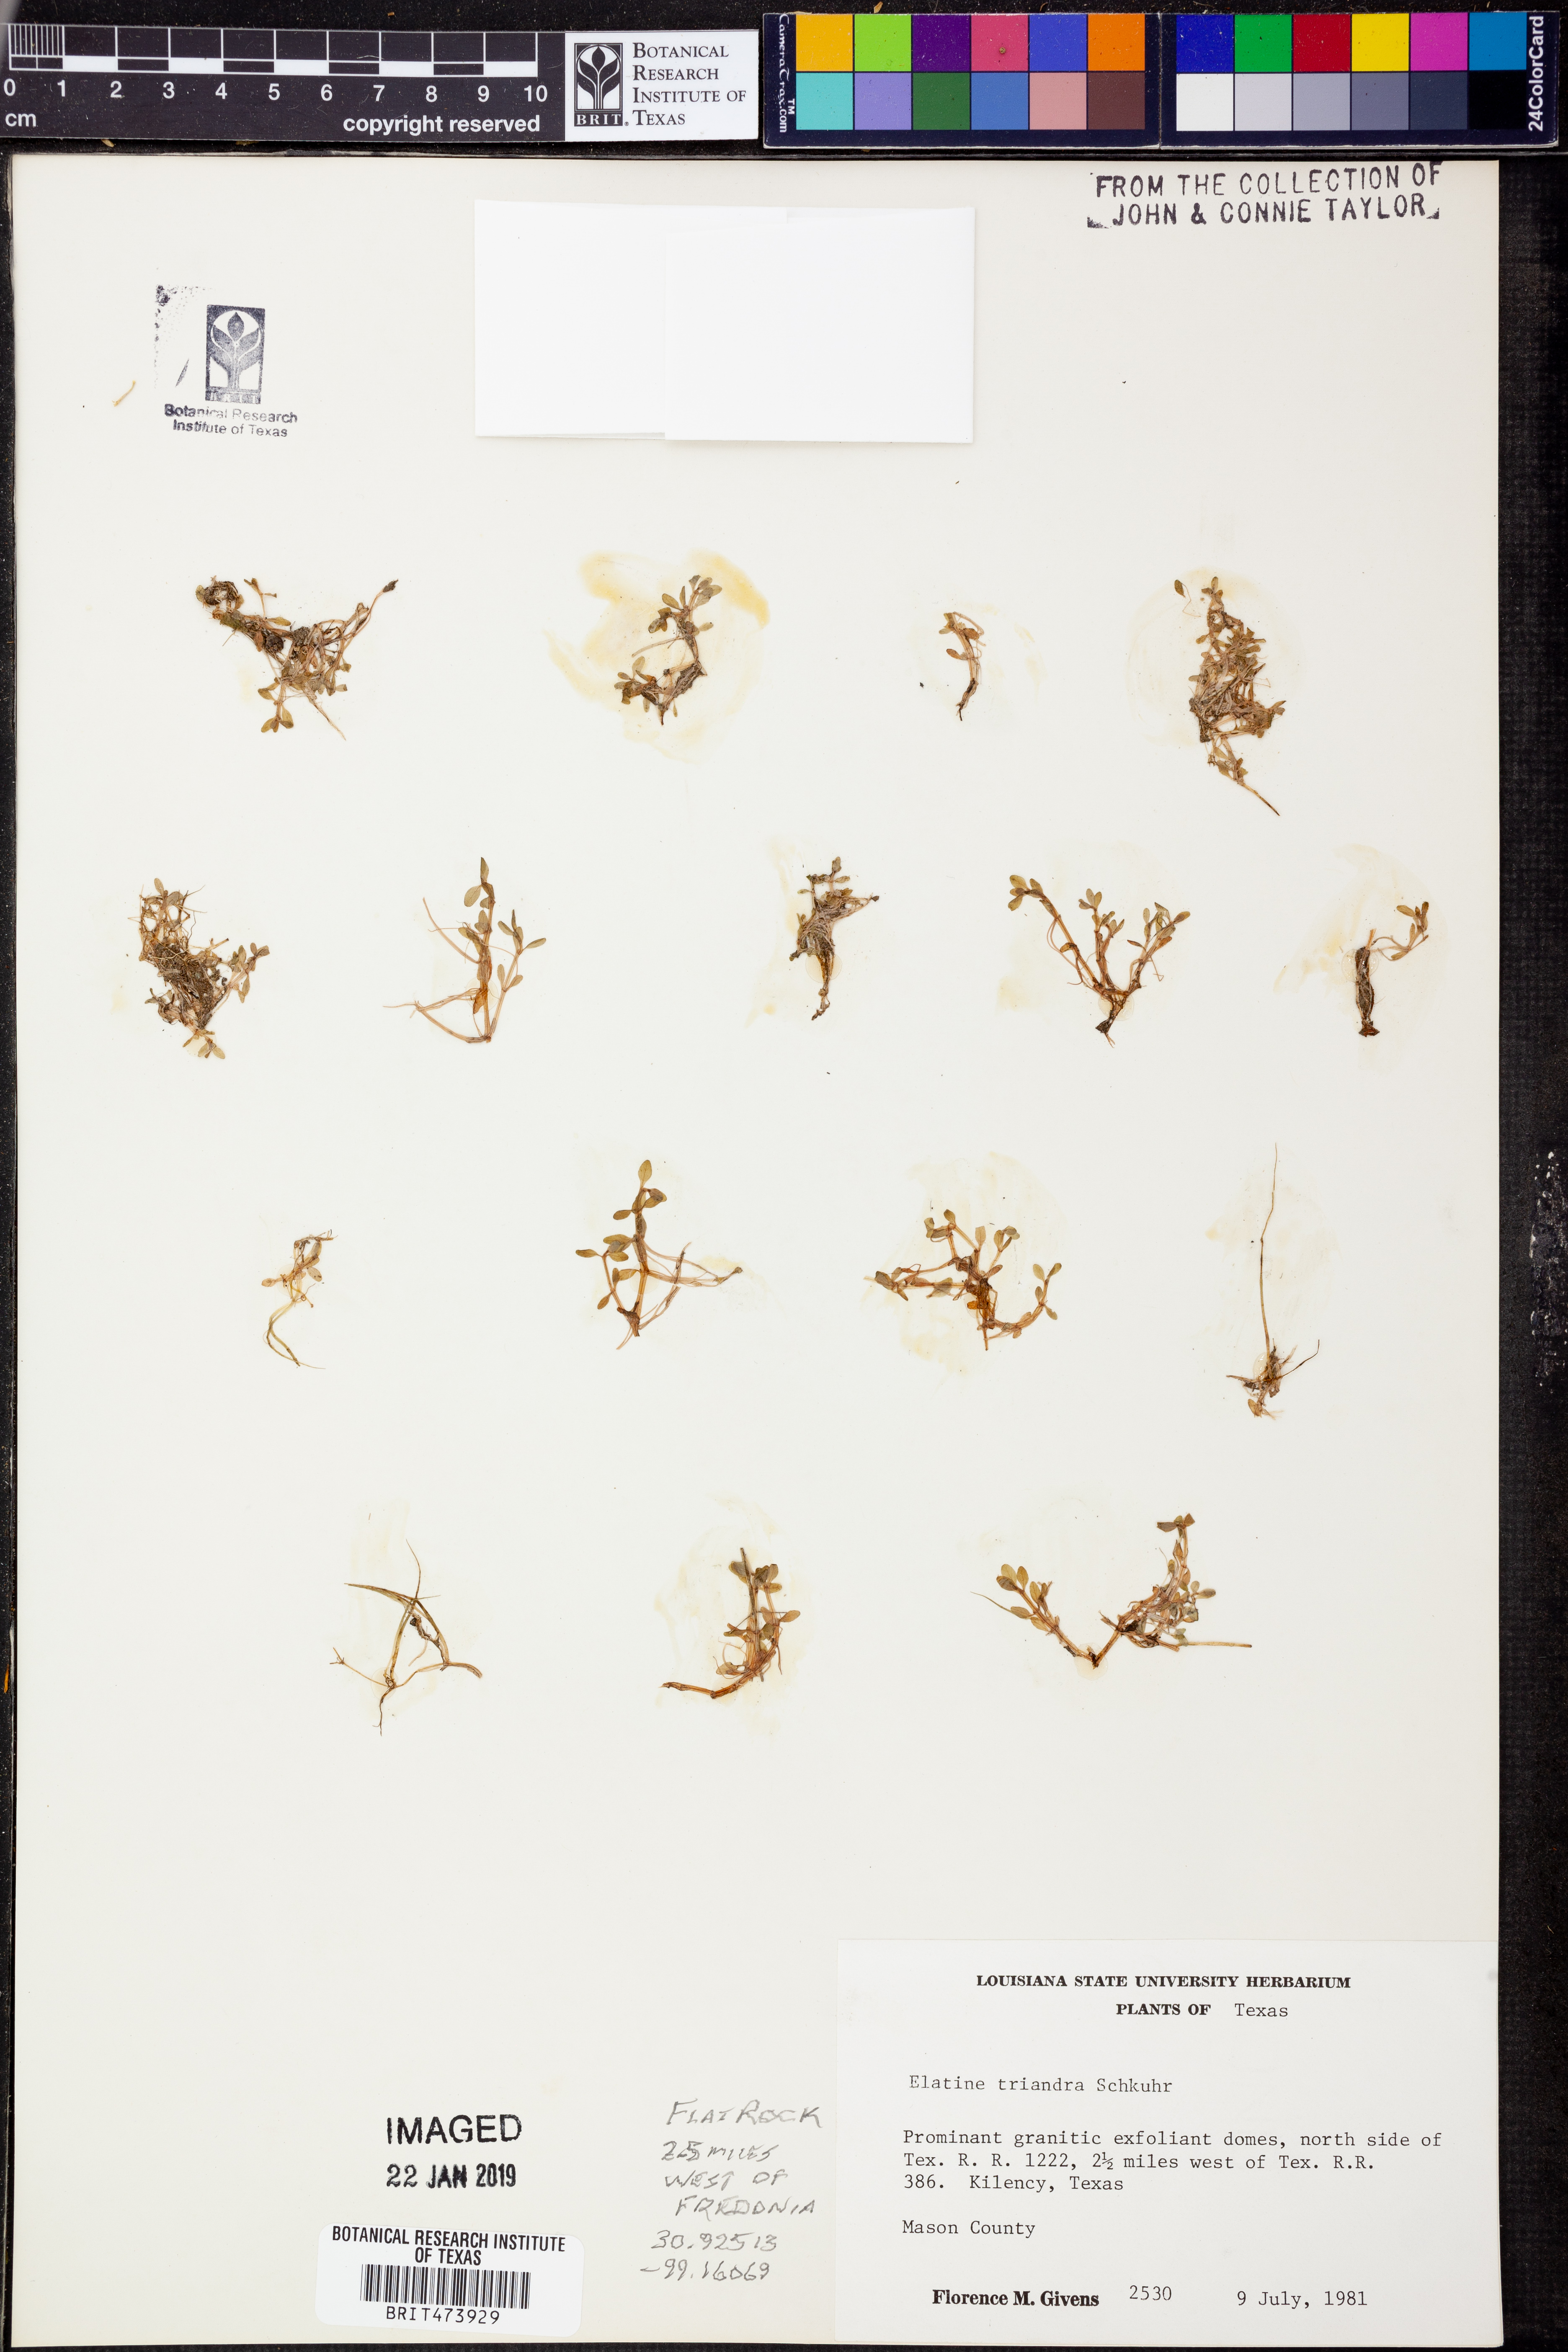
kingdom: Plantae
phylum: Tracheophyta
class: Magnoliopsida
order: Malpighiales
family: Elatinaceae
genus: Elatine
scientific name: Elatine triandra
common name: Three-stamened waterwort
